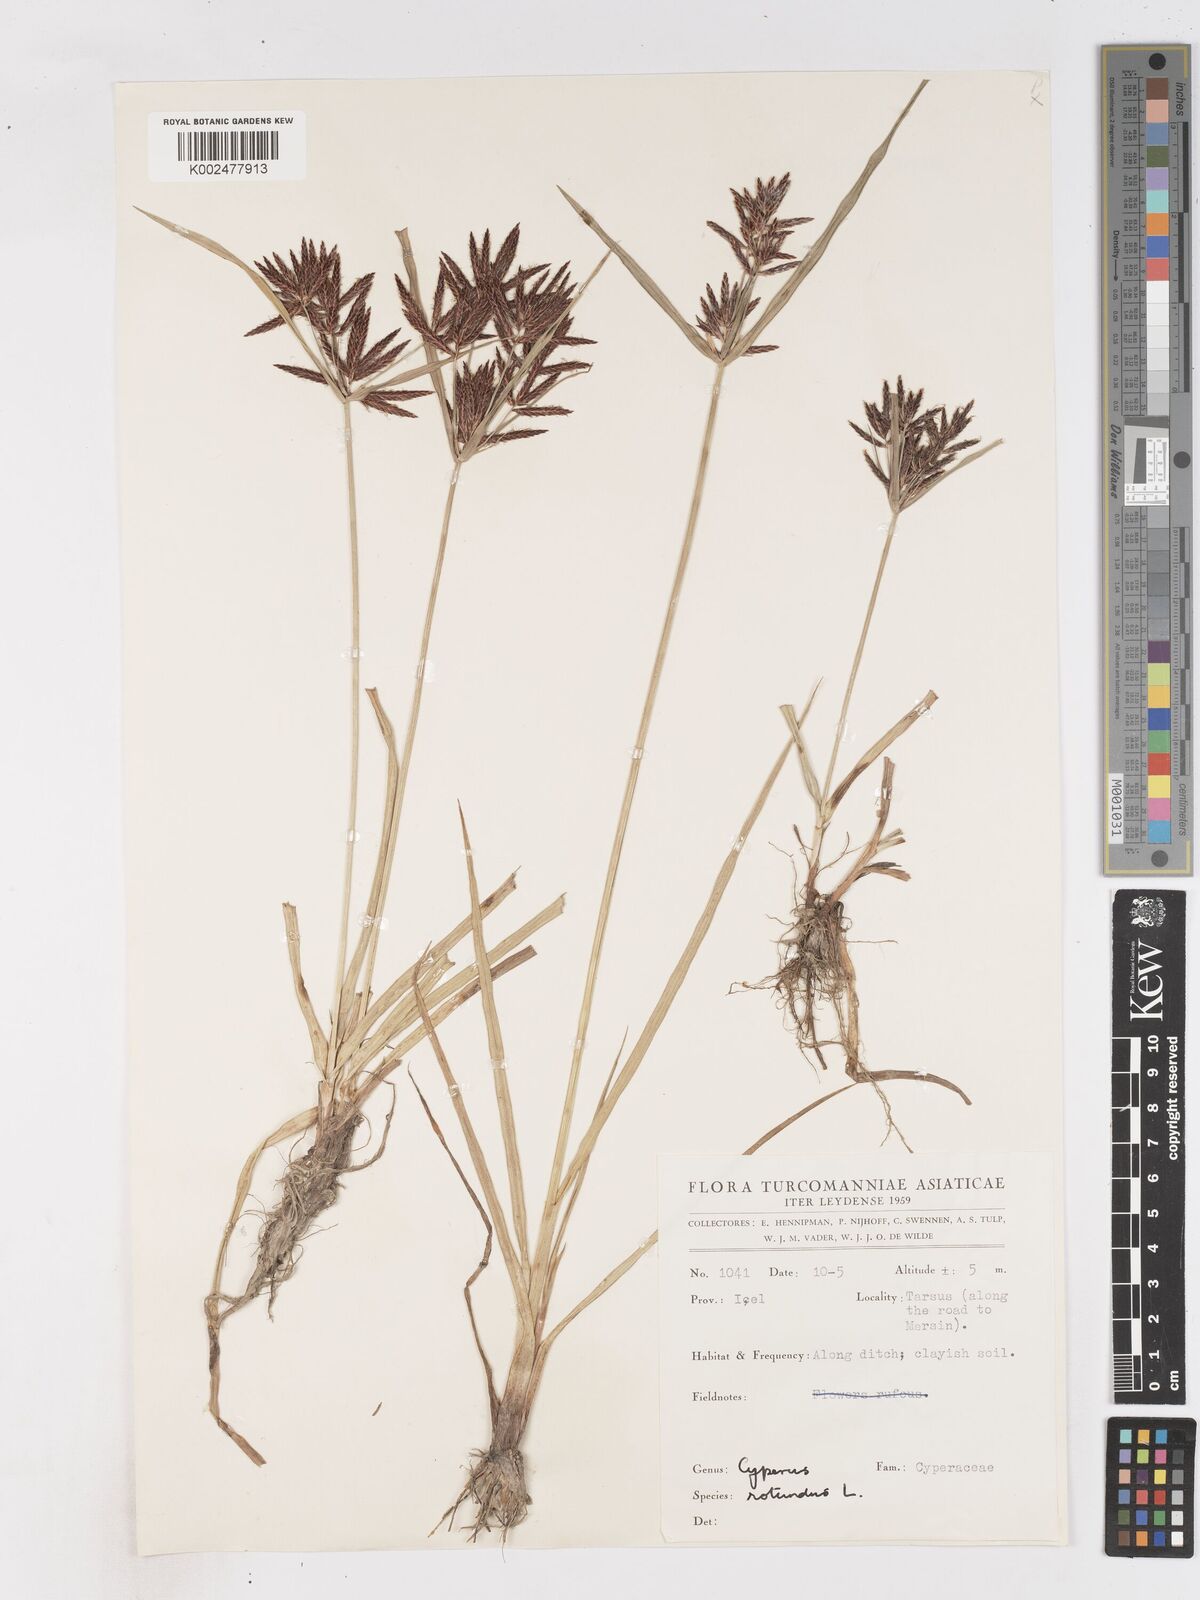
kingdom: Plantae
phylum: Tracheophyta
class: Liliopsida
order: Poales
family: Cyperaceae
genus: Cyperus
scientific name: Cyperus rotundus
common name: Nutgrass
